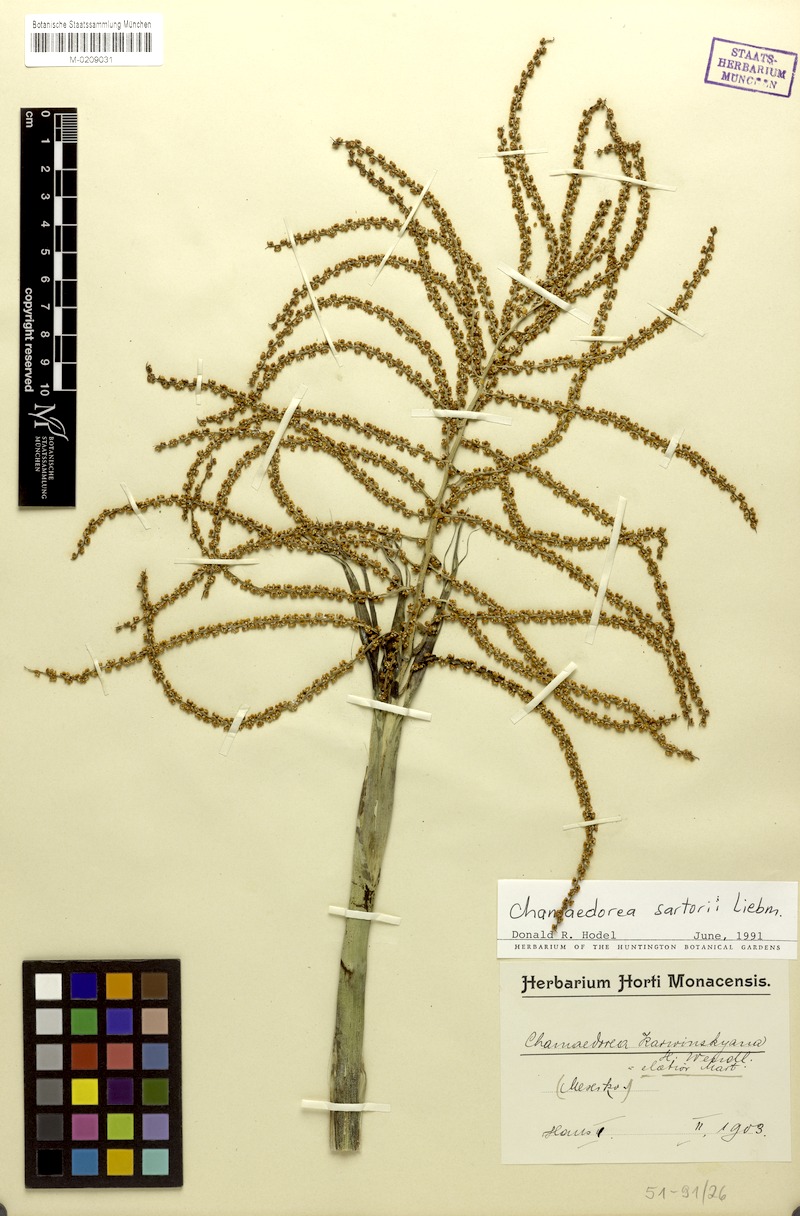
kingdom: Plantae
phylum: Tracheophyta
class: Liliopsida
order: Arecales
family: Arecaceae
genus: Chamaedorea
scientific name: Chamaedorea sartorii
